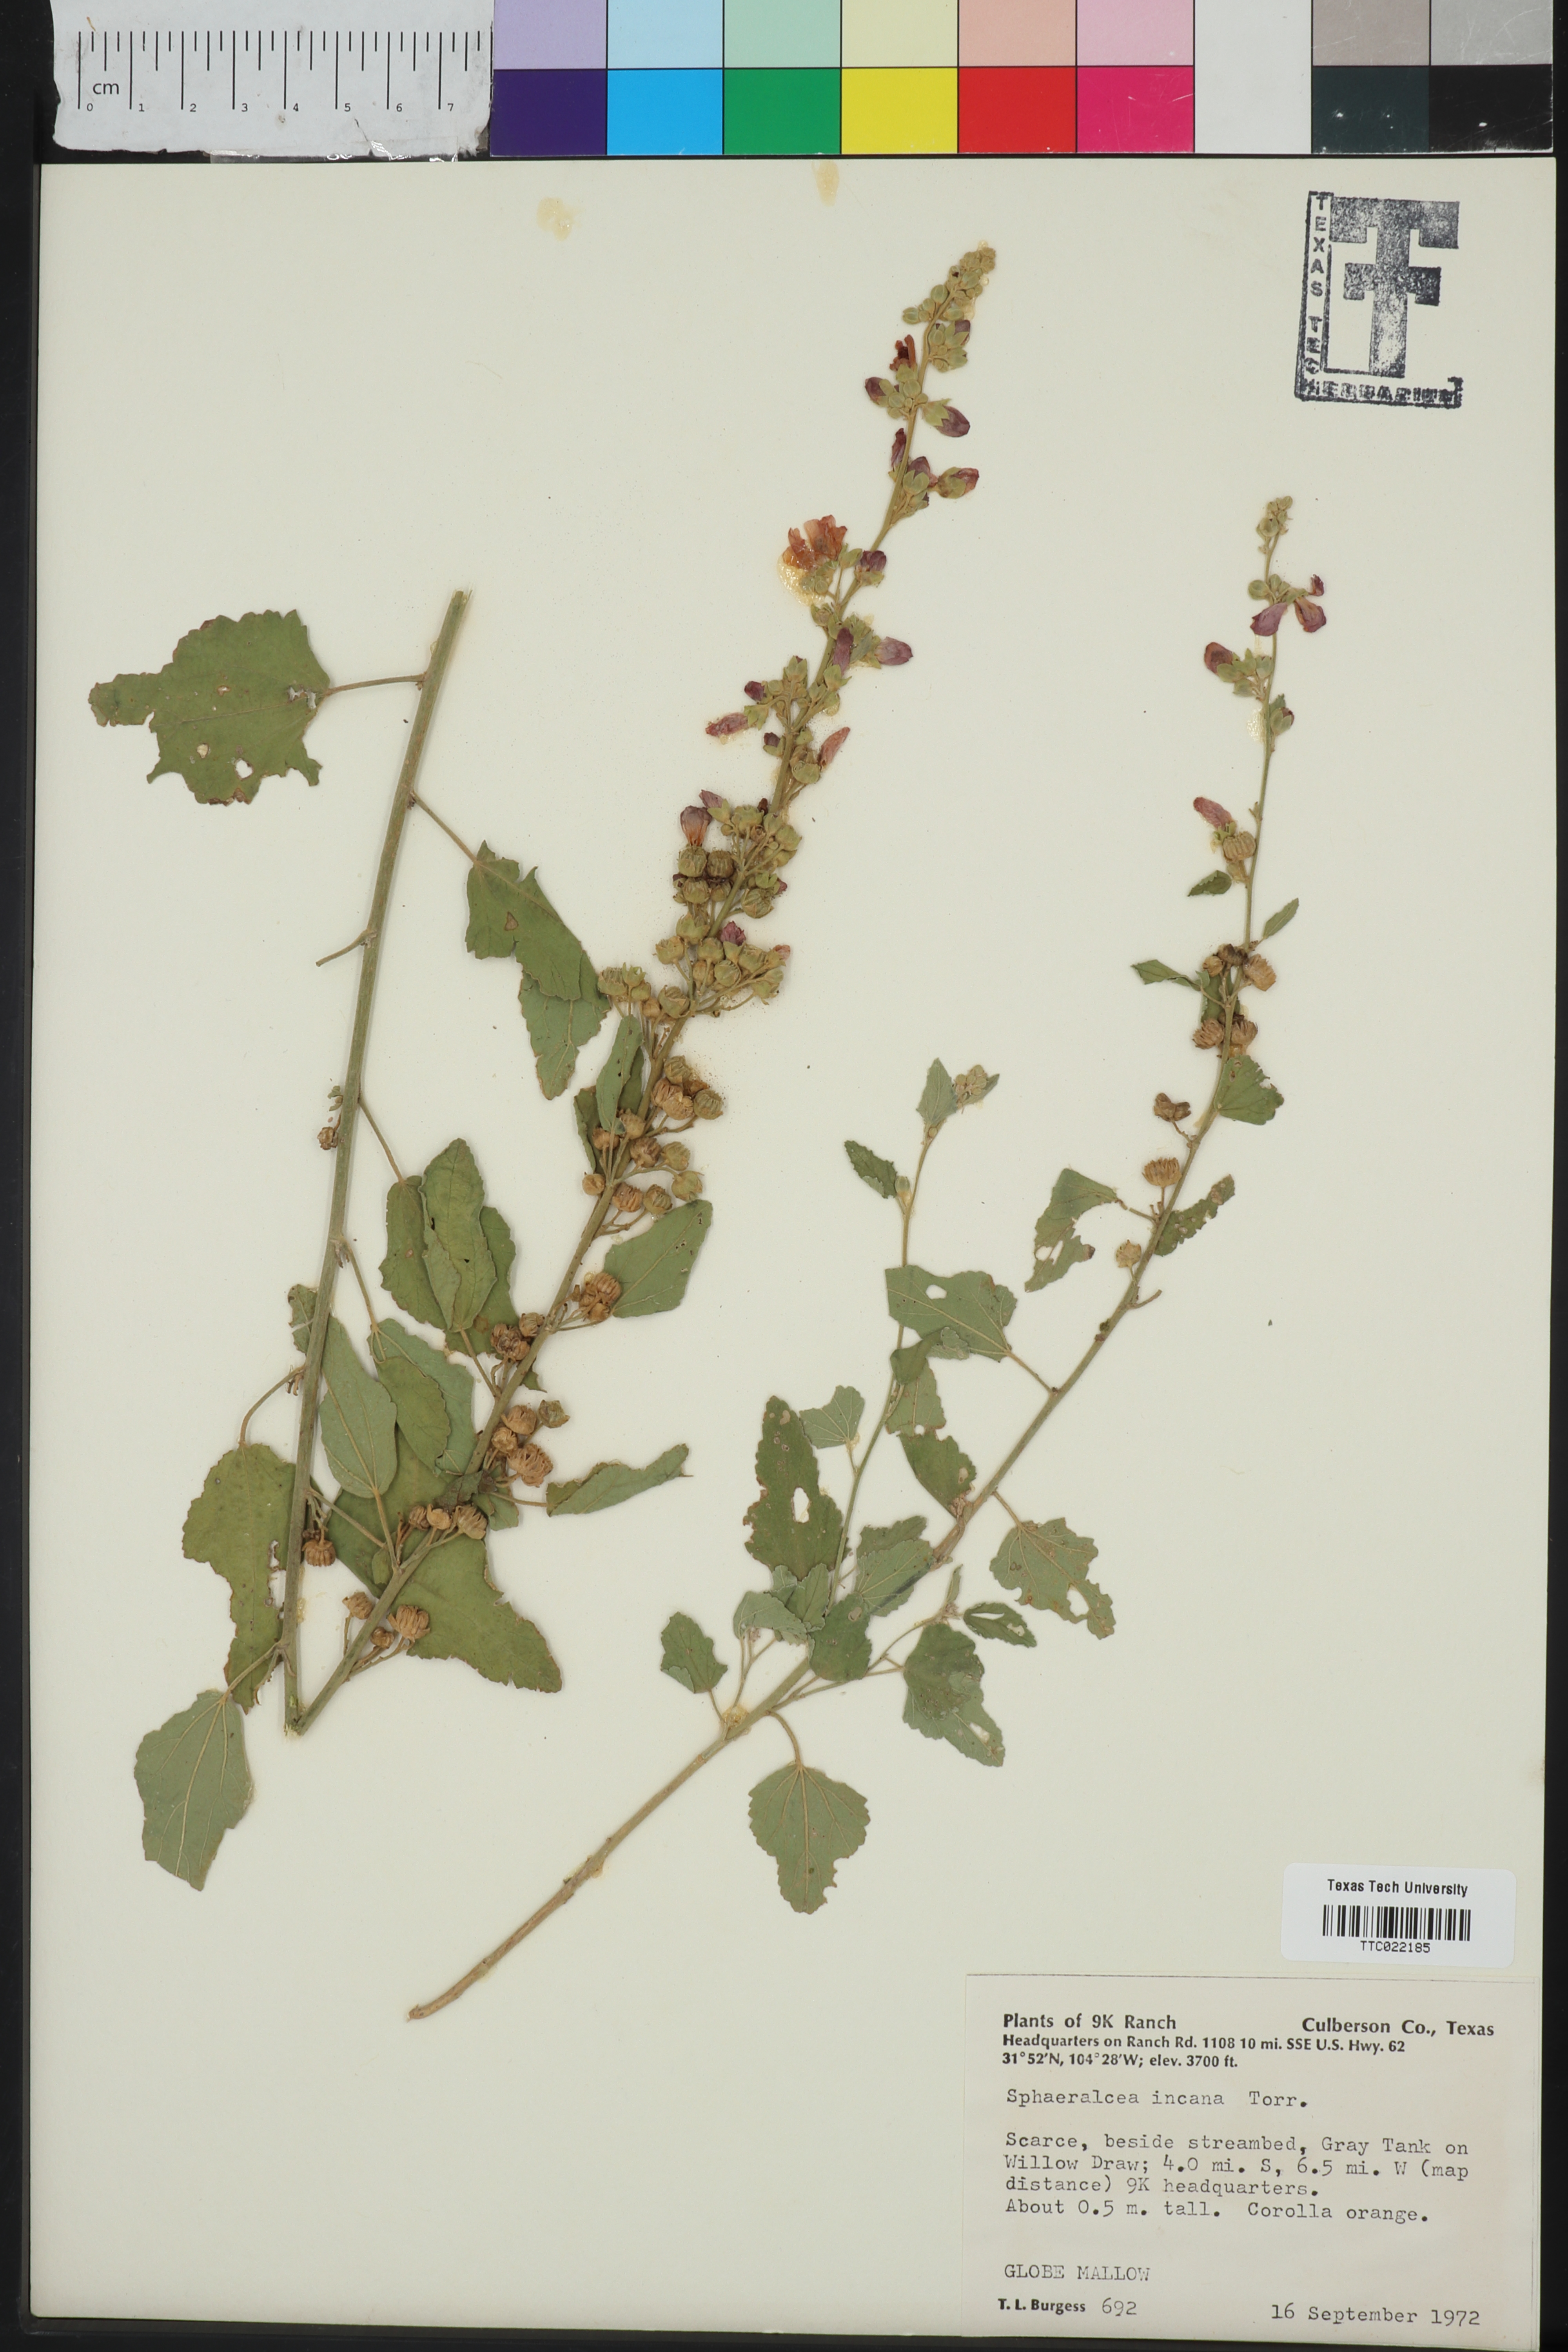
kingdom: Plantae
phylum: Tracheophyta
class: Magnoliopsida
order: Malvales
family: Malvaceae
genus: Sphaeralcea
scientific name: Sphaeralcea incana
